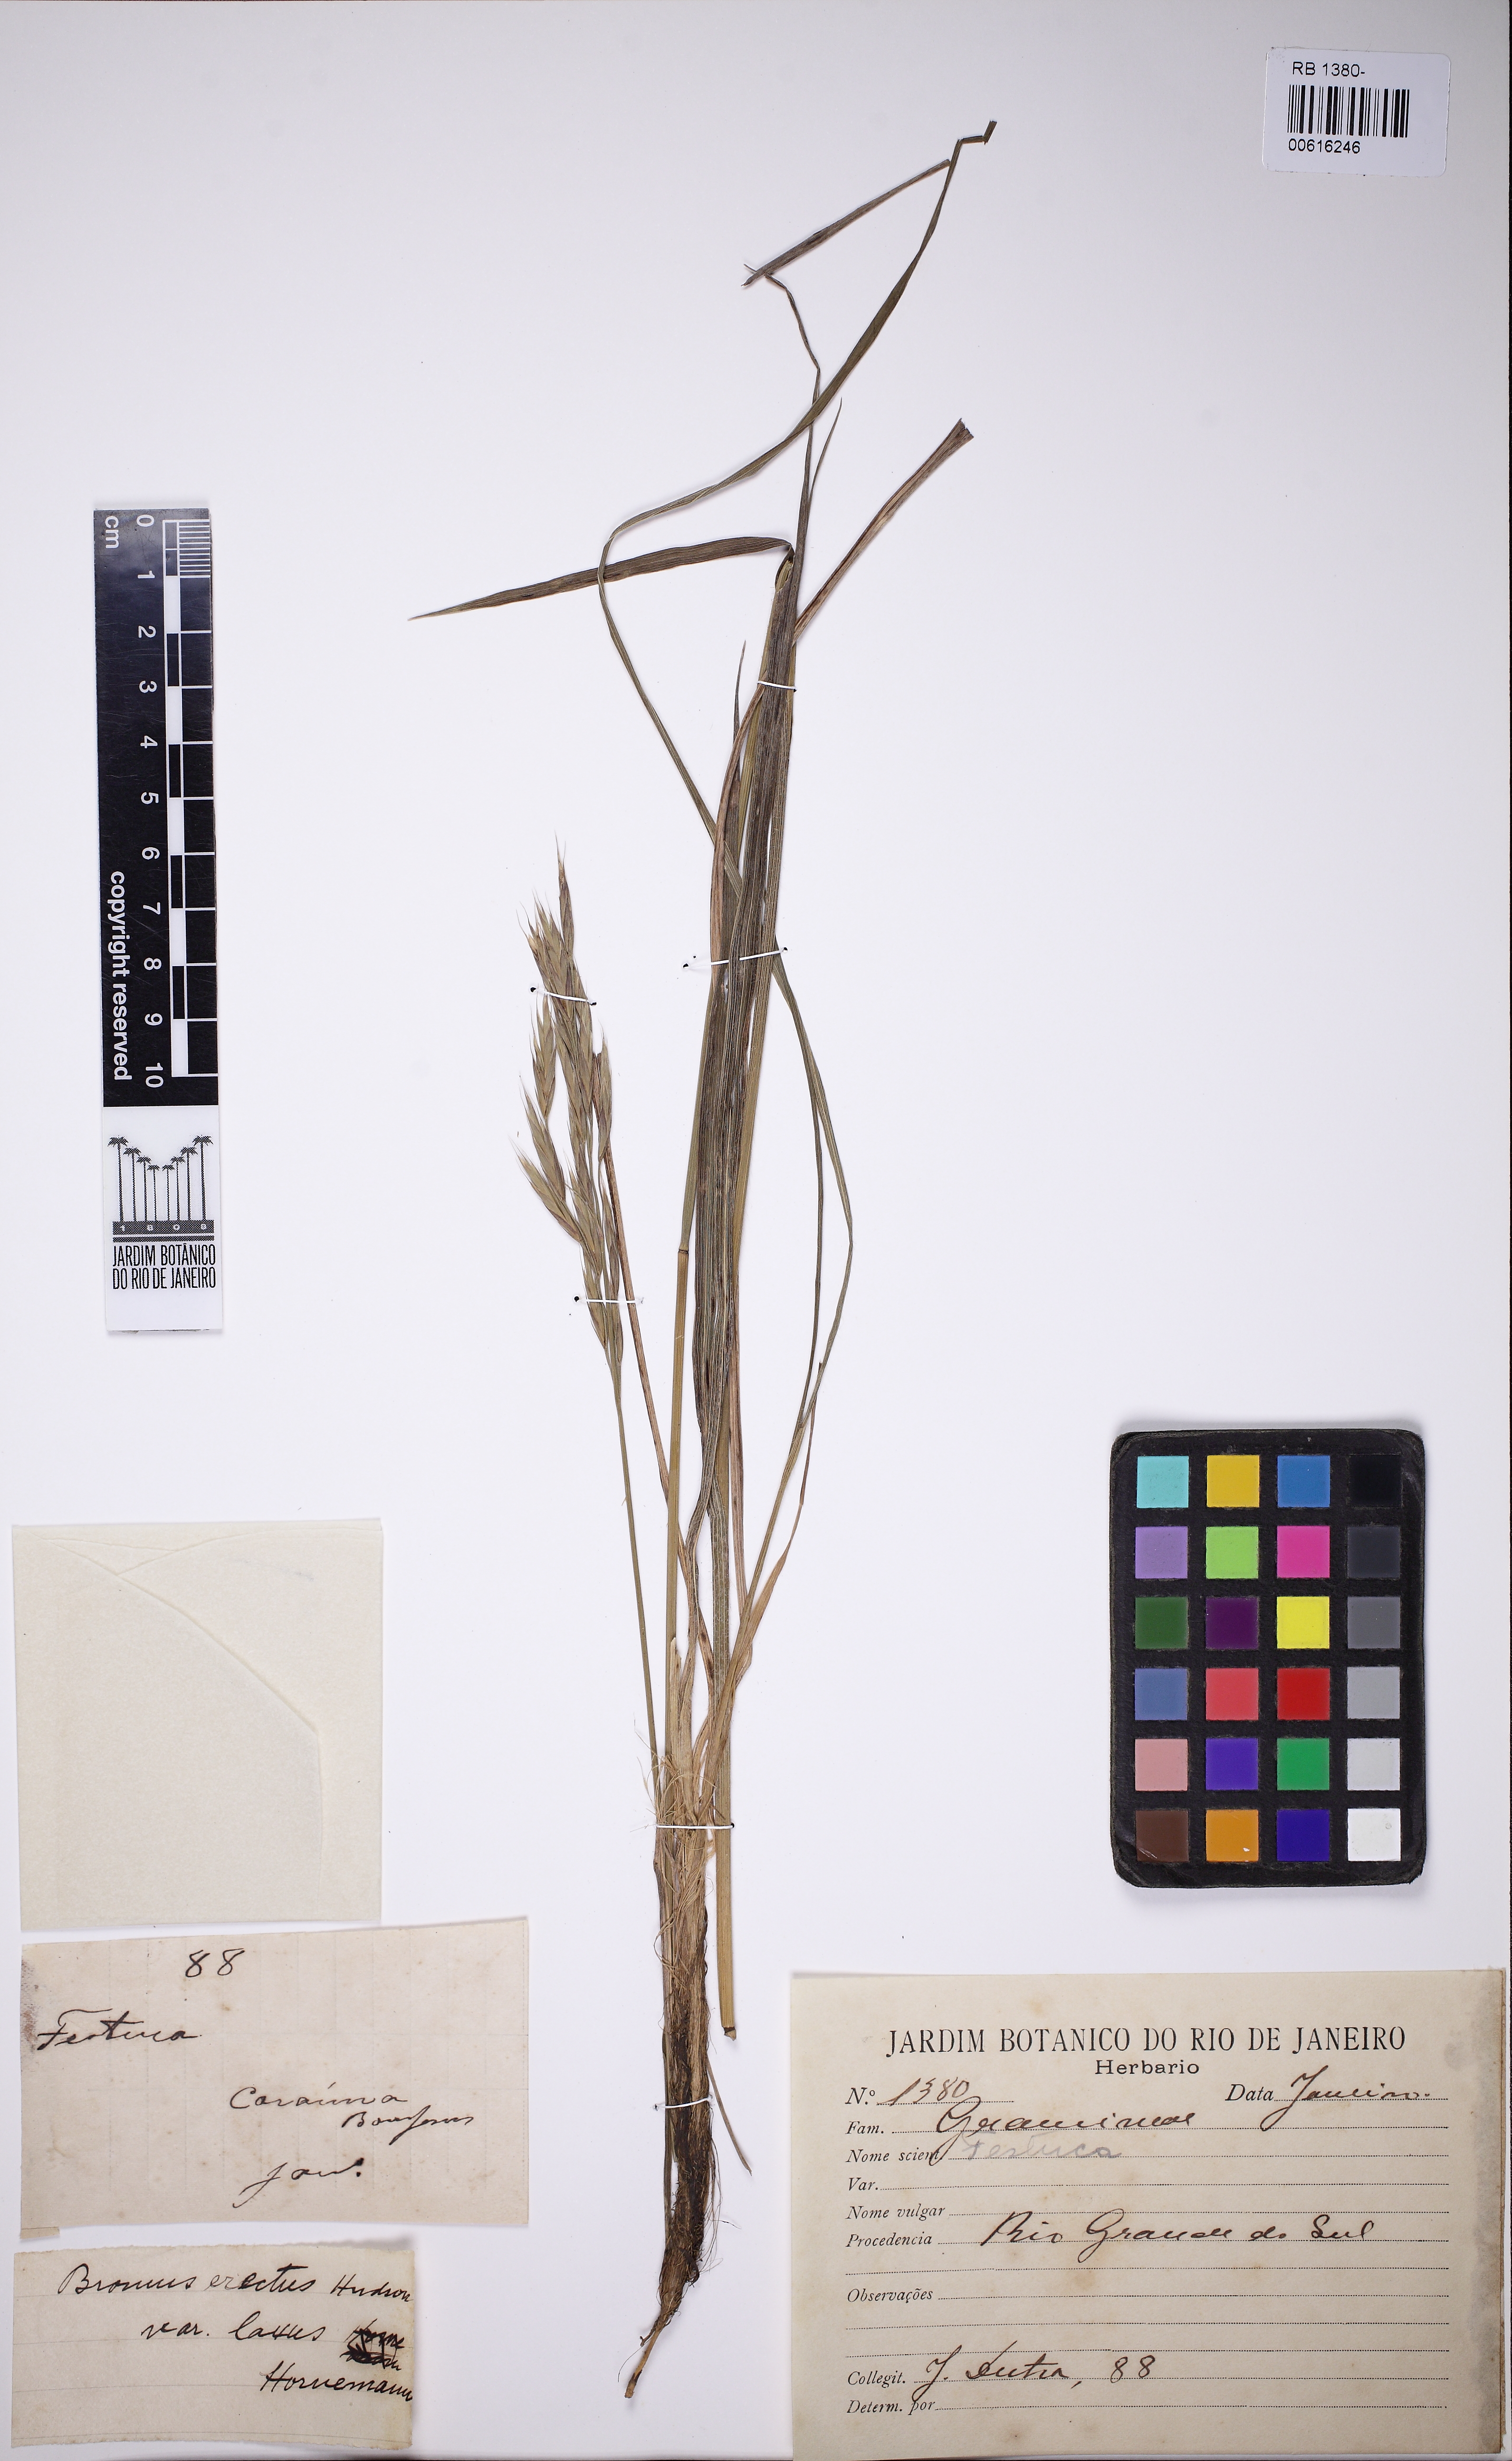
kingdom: Plantae
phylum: Tracheophyta
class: Liliopsida
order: Poales
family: Poaceae
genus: Festuca
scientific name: Festuca
